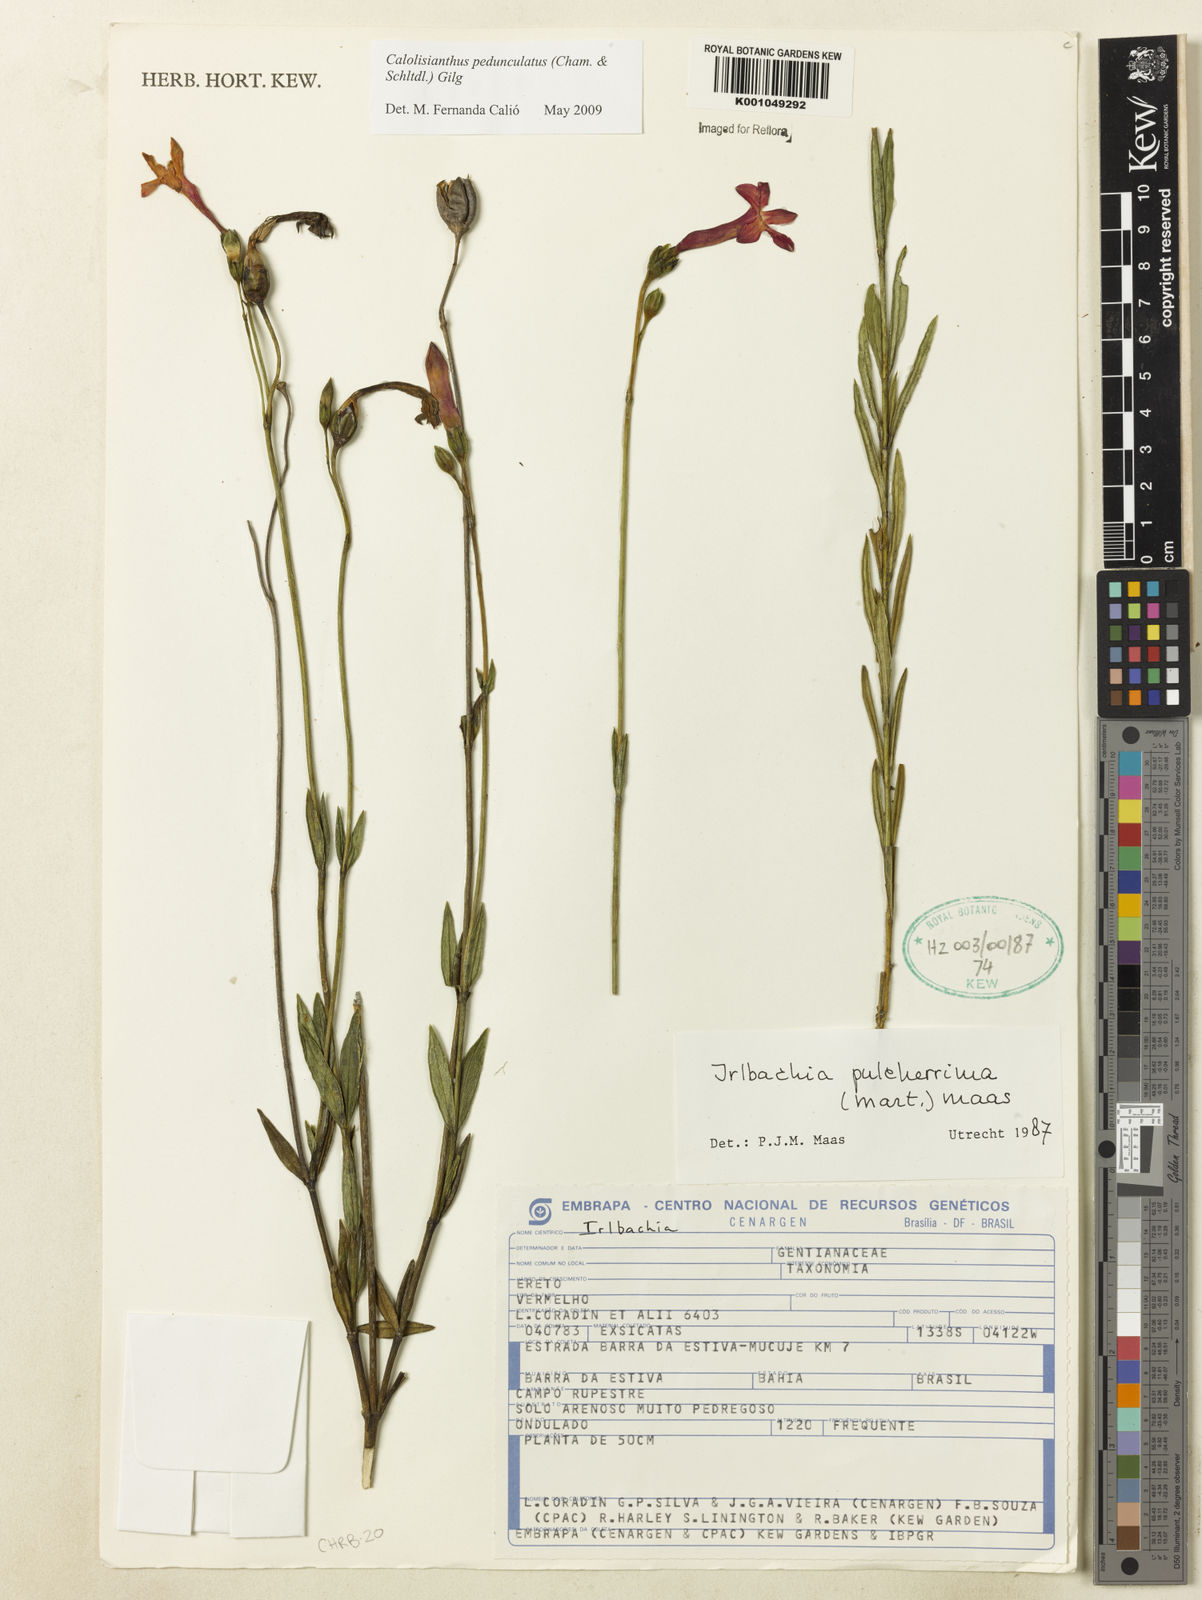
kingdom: Plantae
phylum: Tracheophyta
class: Magnoliopsida
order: Gentianales
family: Gentianaceae
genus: Calolisianthus
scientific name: Calolisianthus pedunculatus
